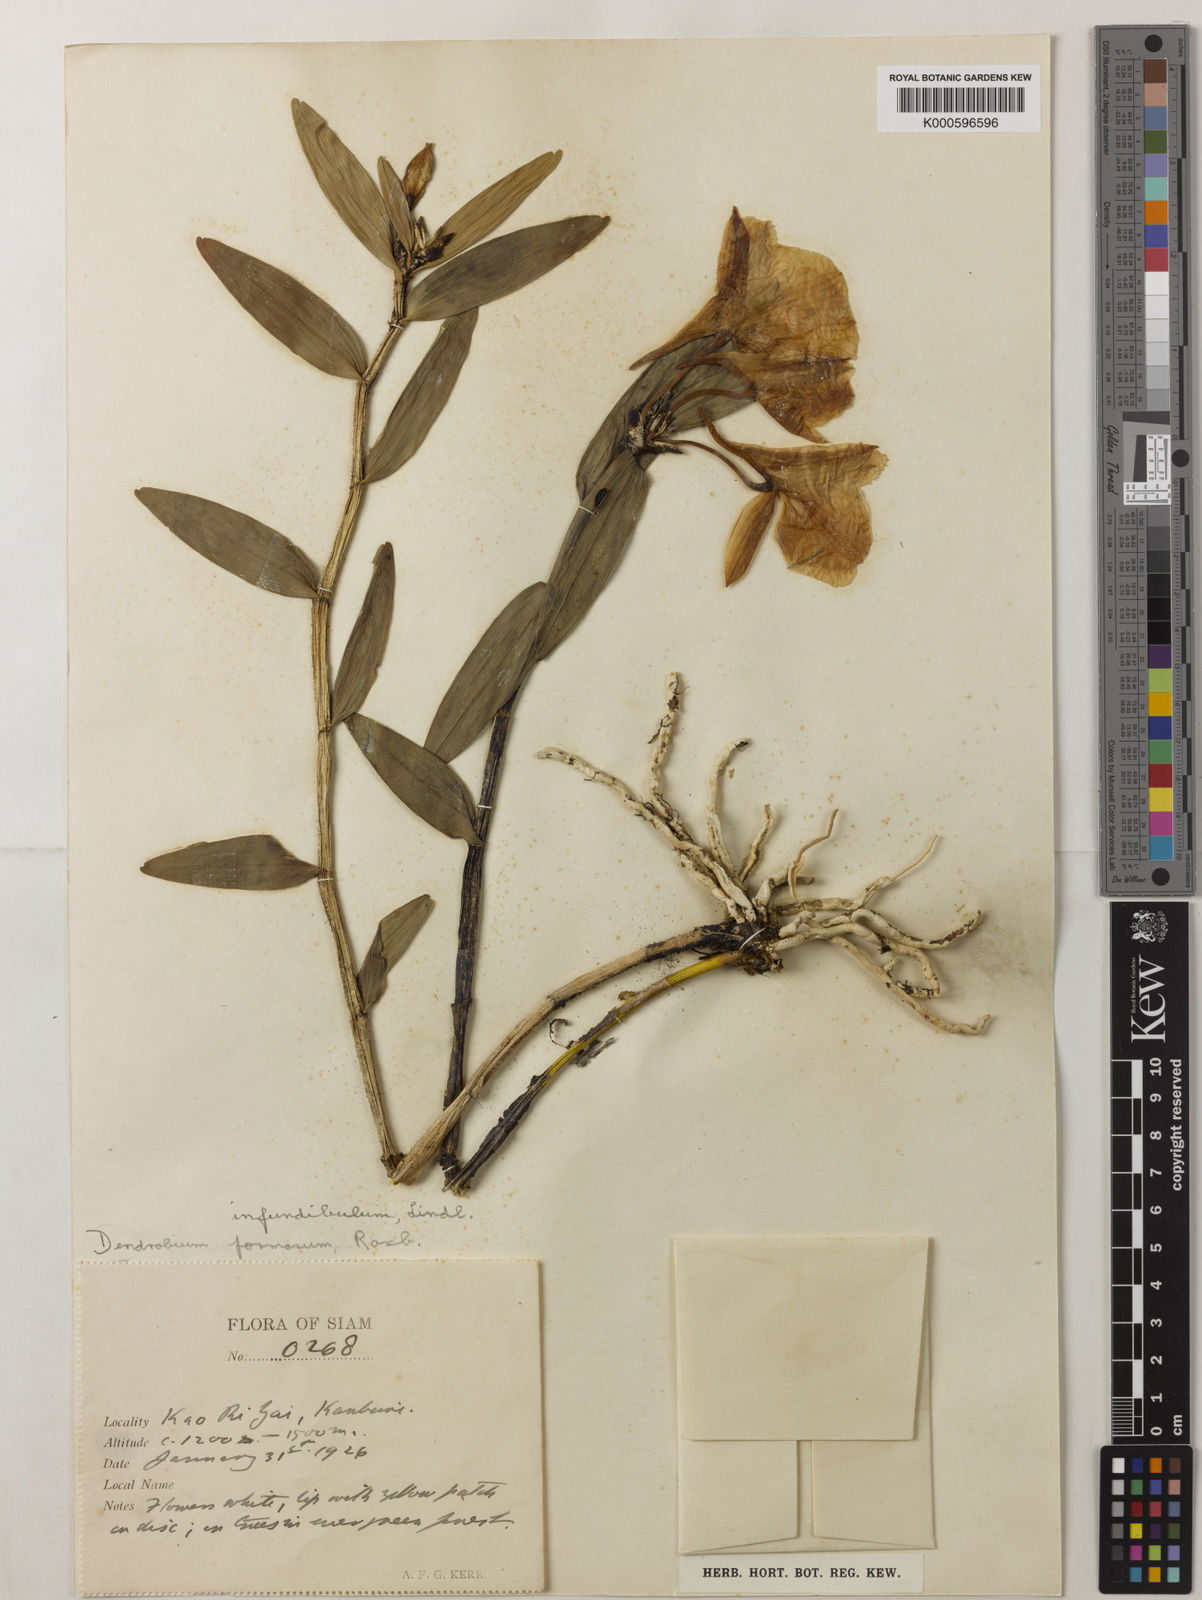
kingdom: Plantae
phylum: Tracheophyta
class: Liliopsida
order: Asparagales
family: Orchidaceae
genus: Dendrobium
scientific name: Dendrobium infundibulum
